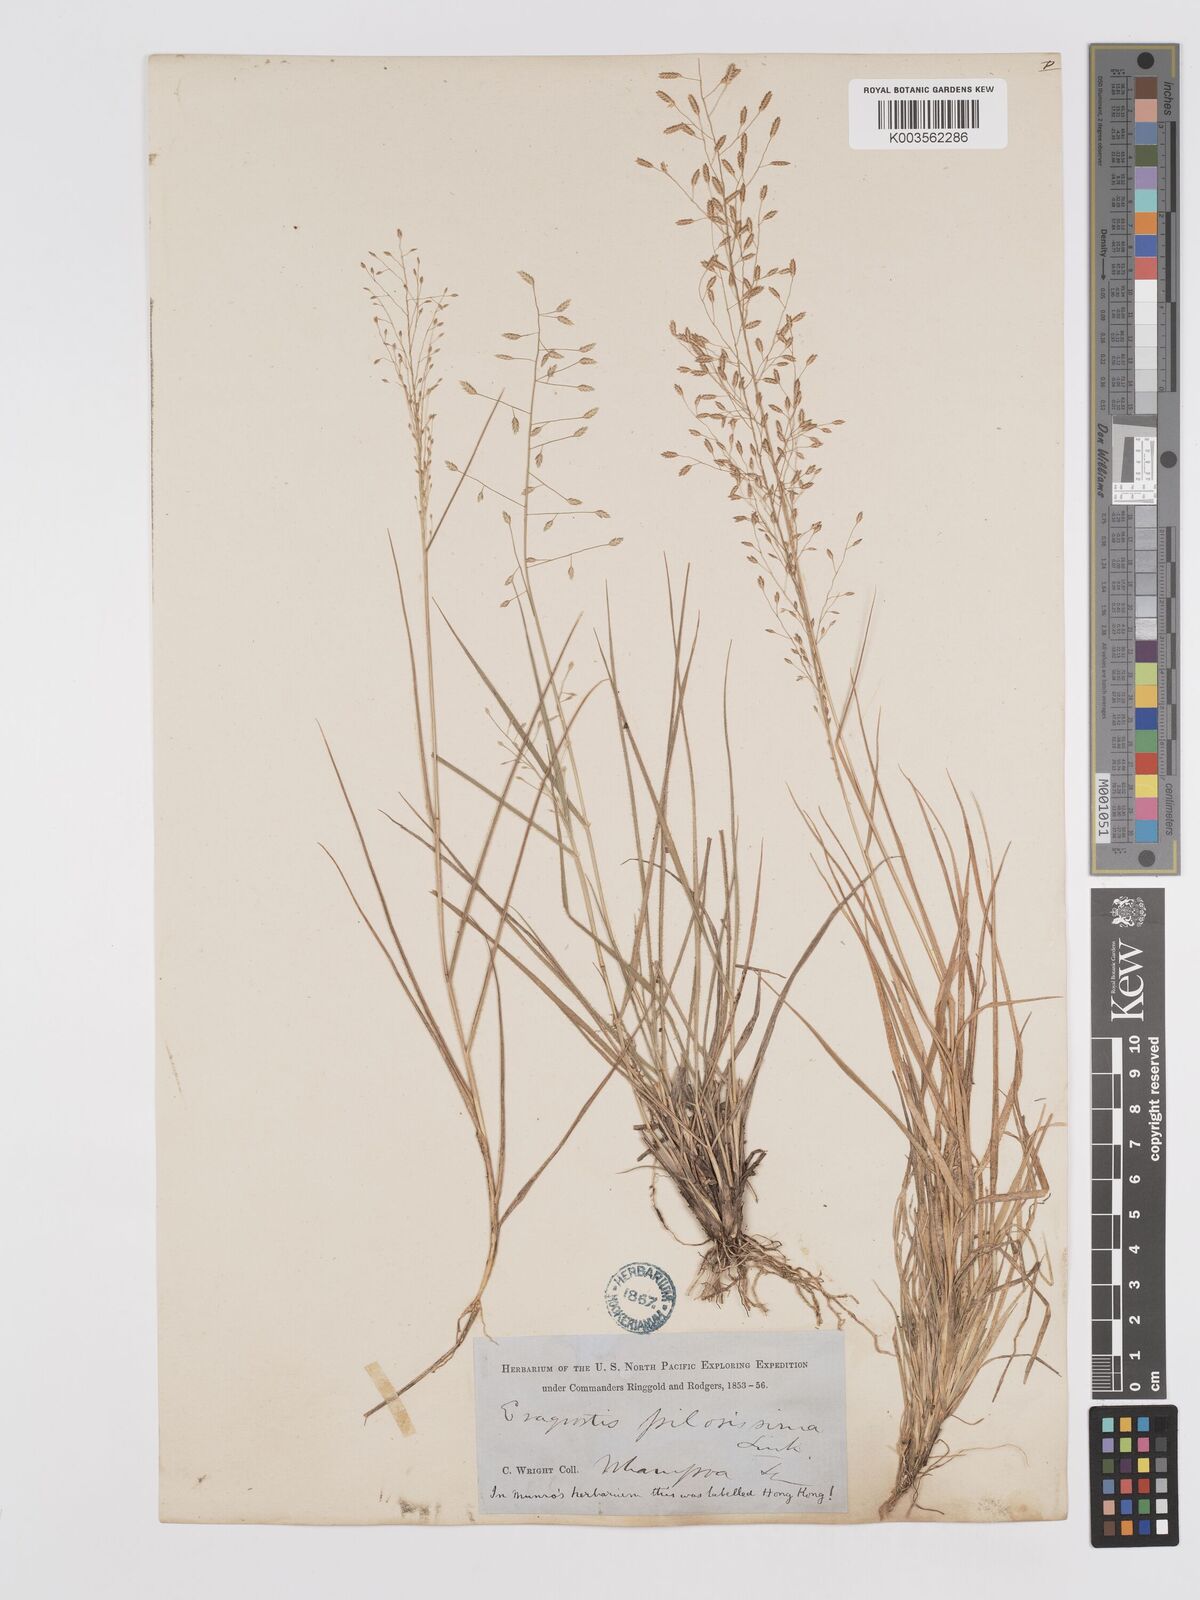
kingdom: Plantae
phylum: Tracheophyta
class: Liliopsida
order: Poales
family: Poaceae
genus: Eragrostis
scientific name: Eragrostis pilosissima
